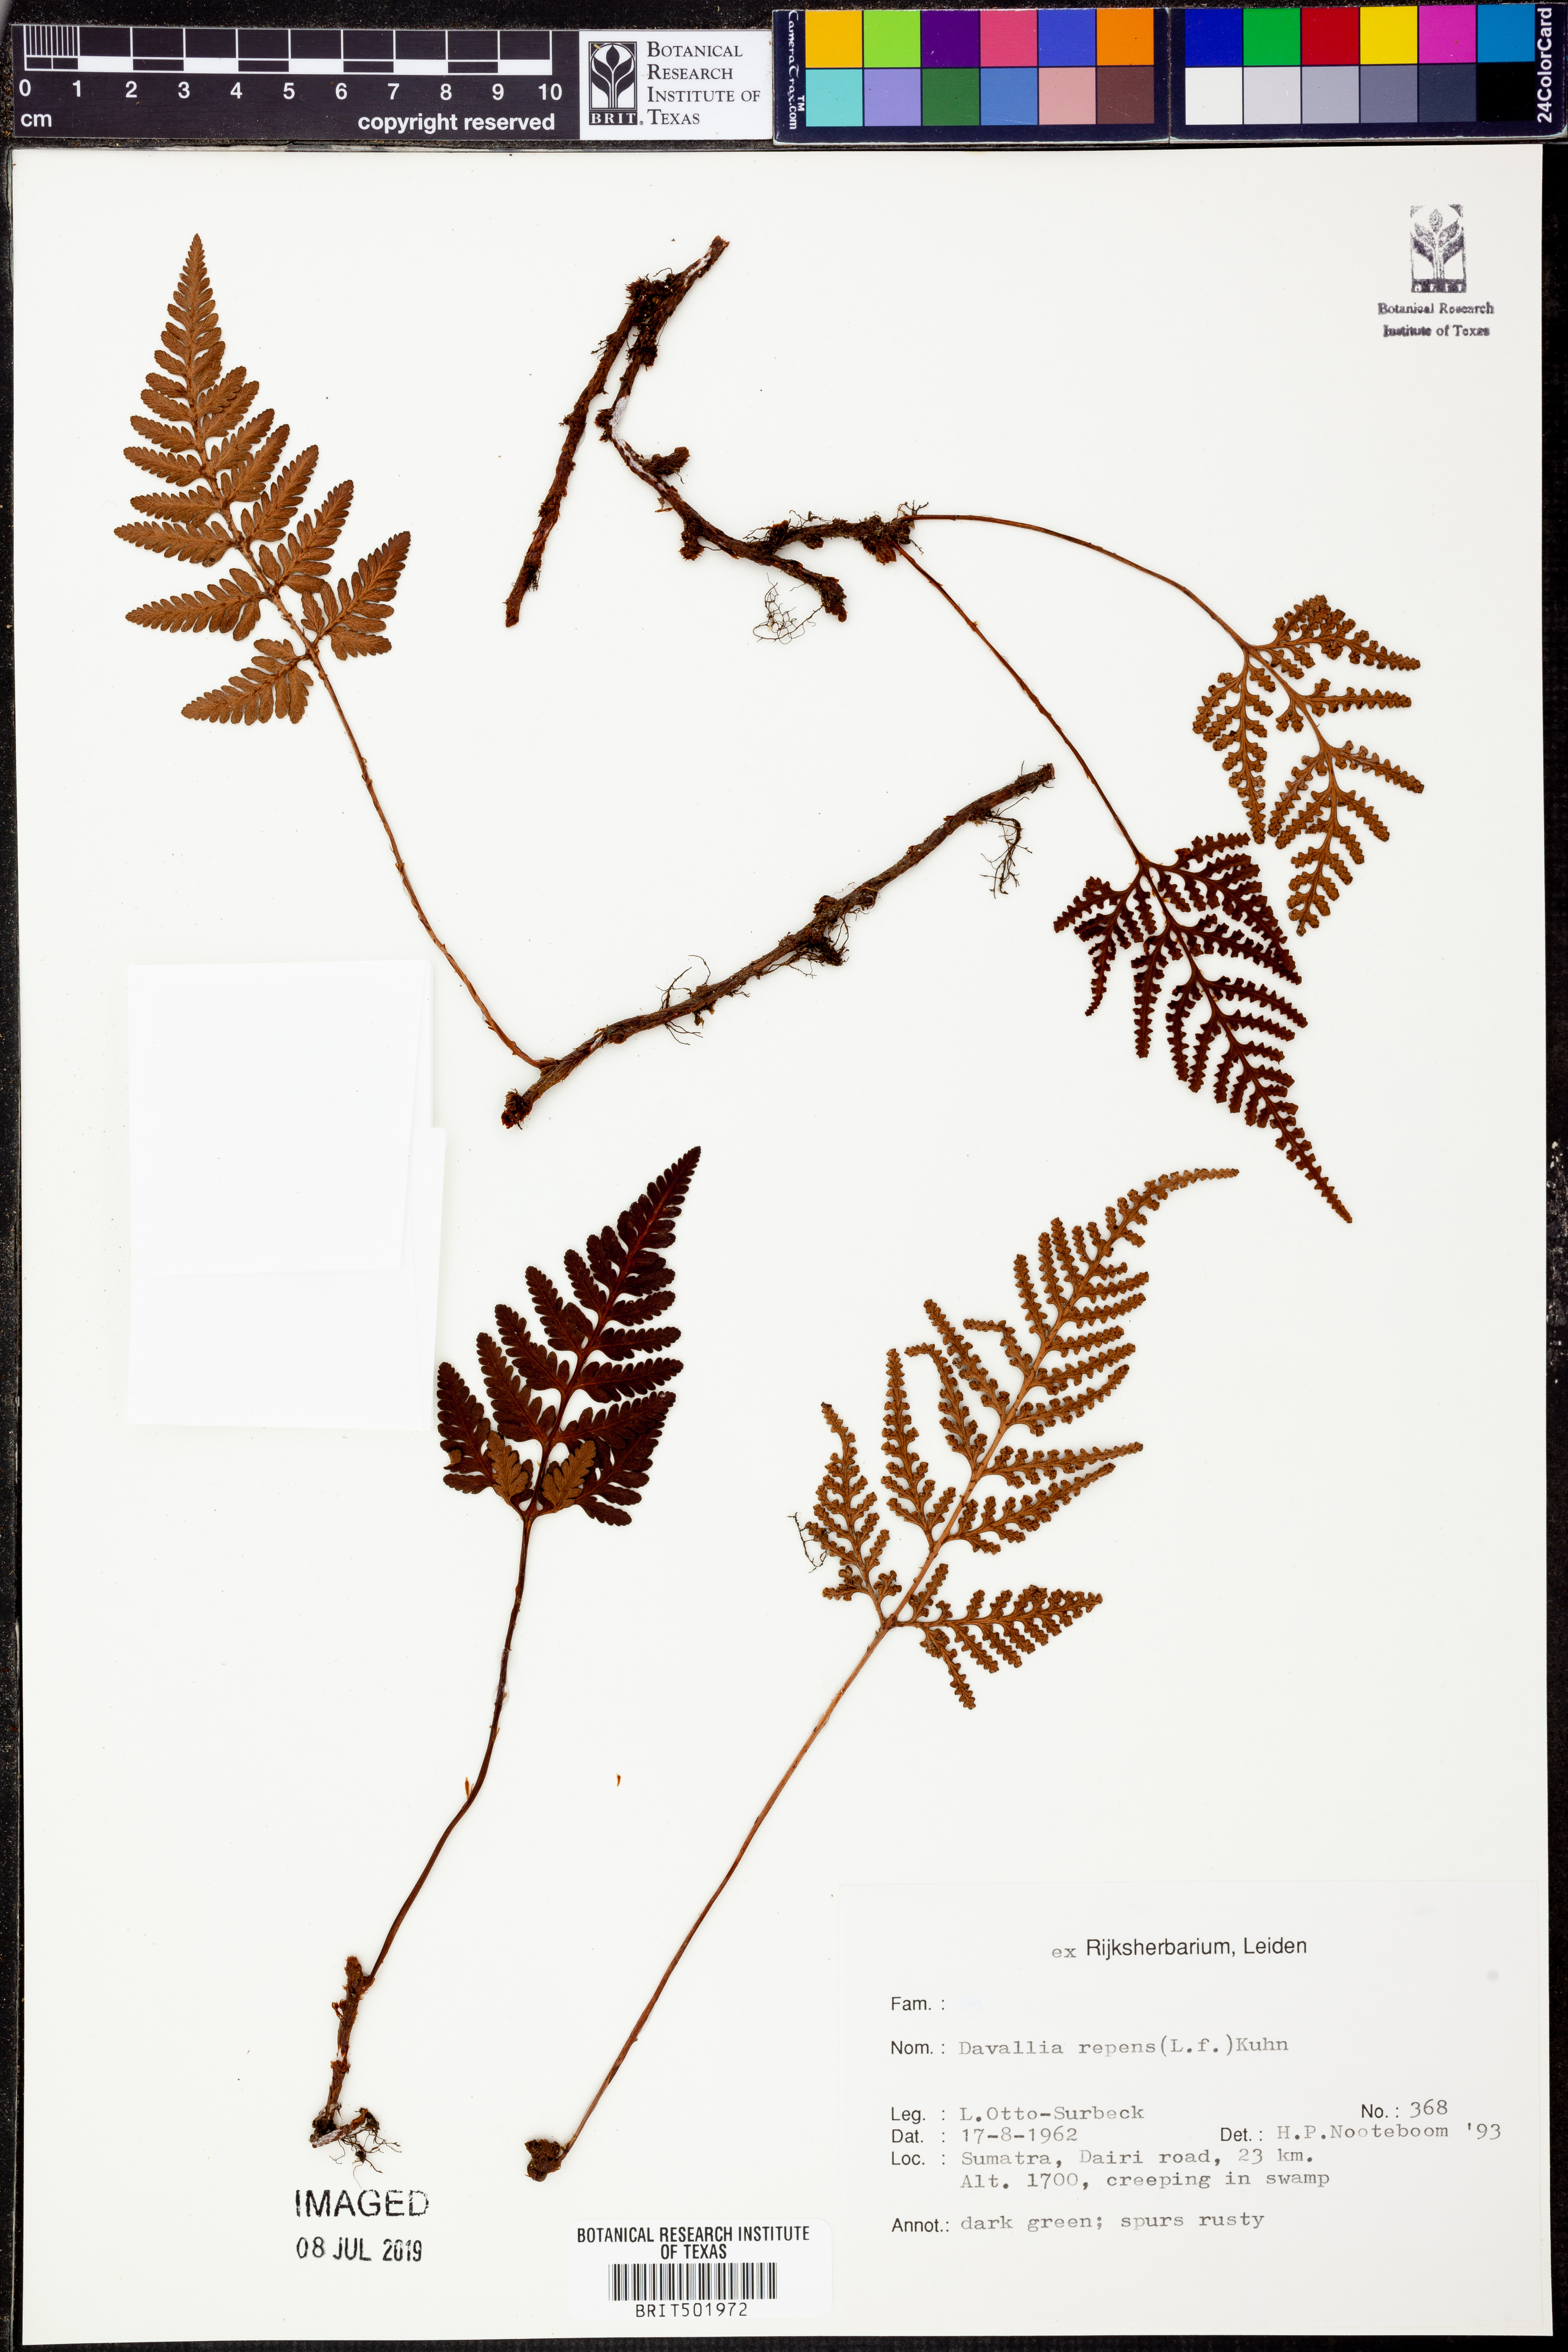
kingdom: Plantae
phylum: Tracheophyta
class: Polypodiopsida
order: Polypodiales
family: Davalliaceae
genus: Davallia
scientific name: Davallia repens
